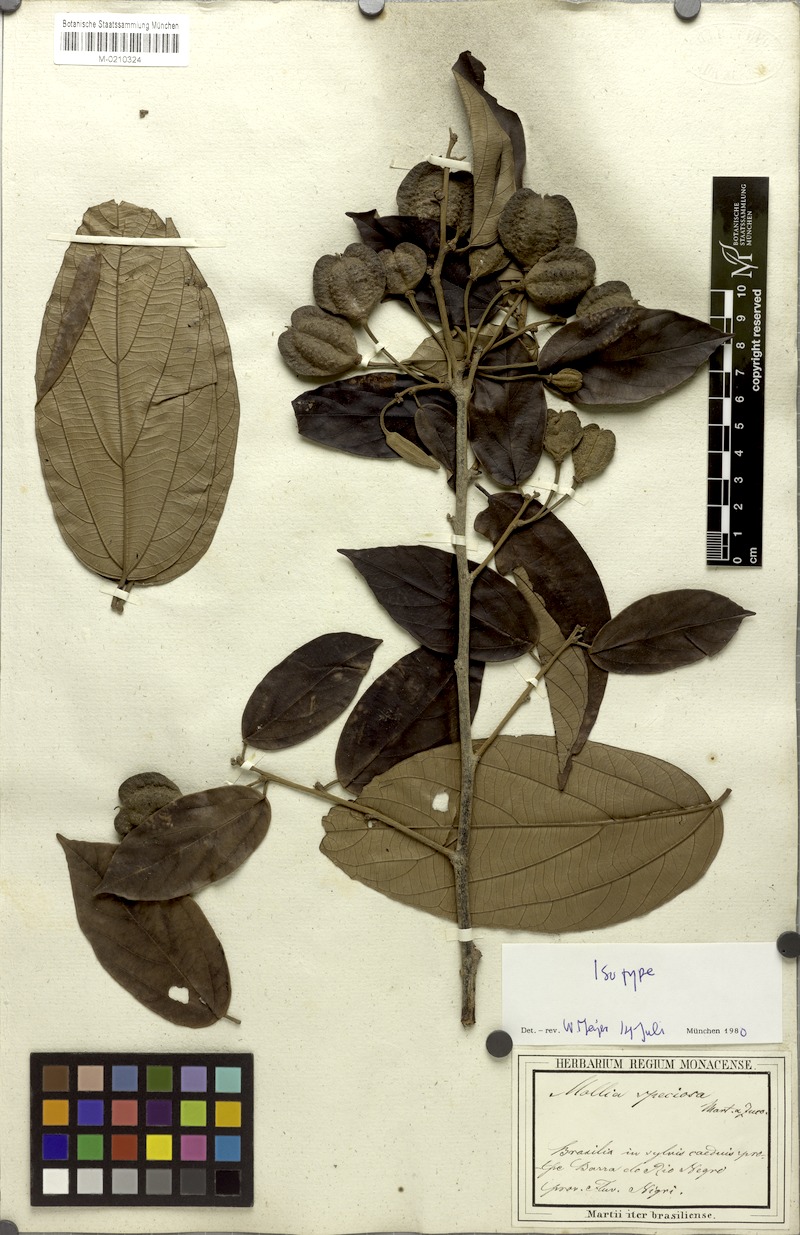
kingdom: Plantae
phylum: Tracheophyta
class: Magnoliopsida
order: Malvales
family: Malvaceae
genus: Mollia
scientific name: Mollia speciosa
